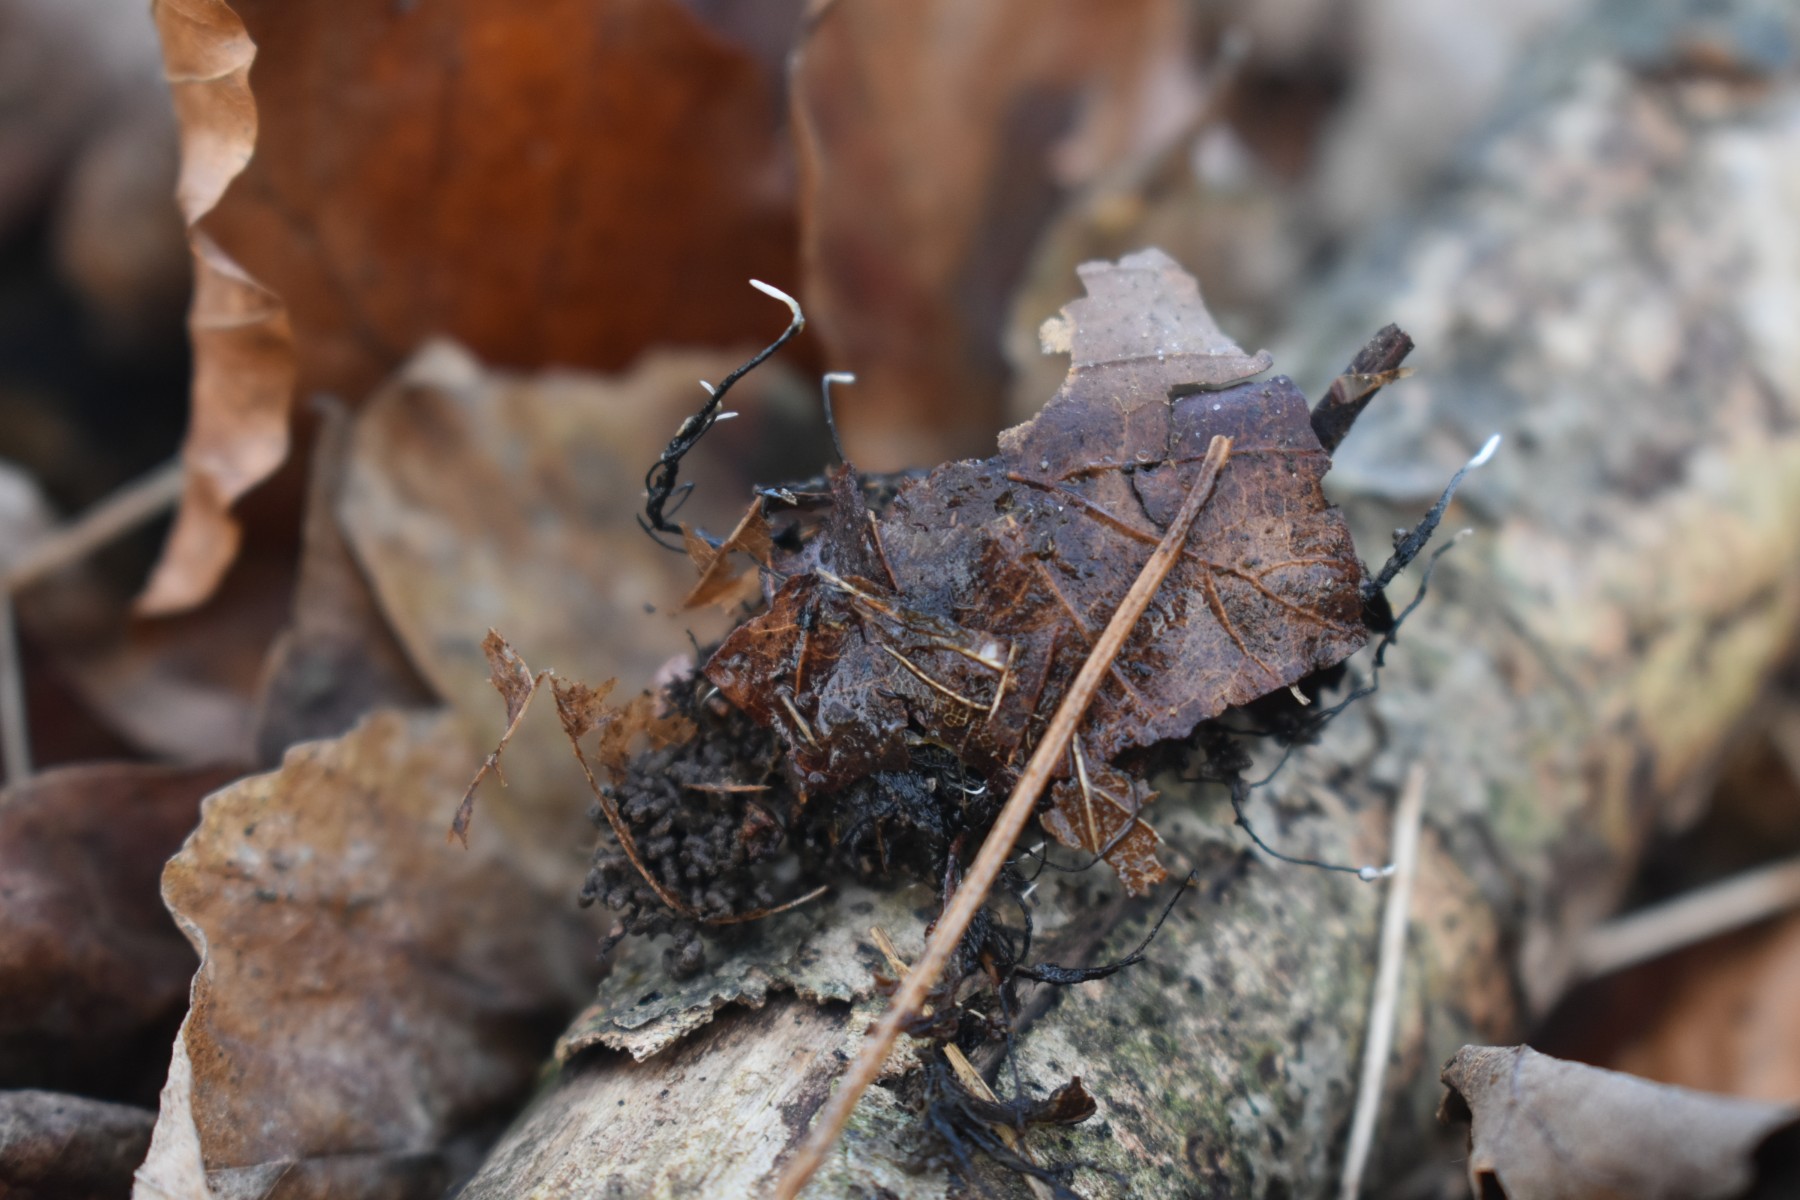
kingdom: Fungi
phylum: Ascomycota
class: Sordariomycetes
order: Xylariales
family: Xylariaceae
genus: Xylaria
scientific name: Xylaria carpophila
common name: bogskål-stødsvamp
